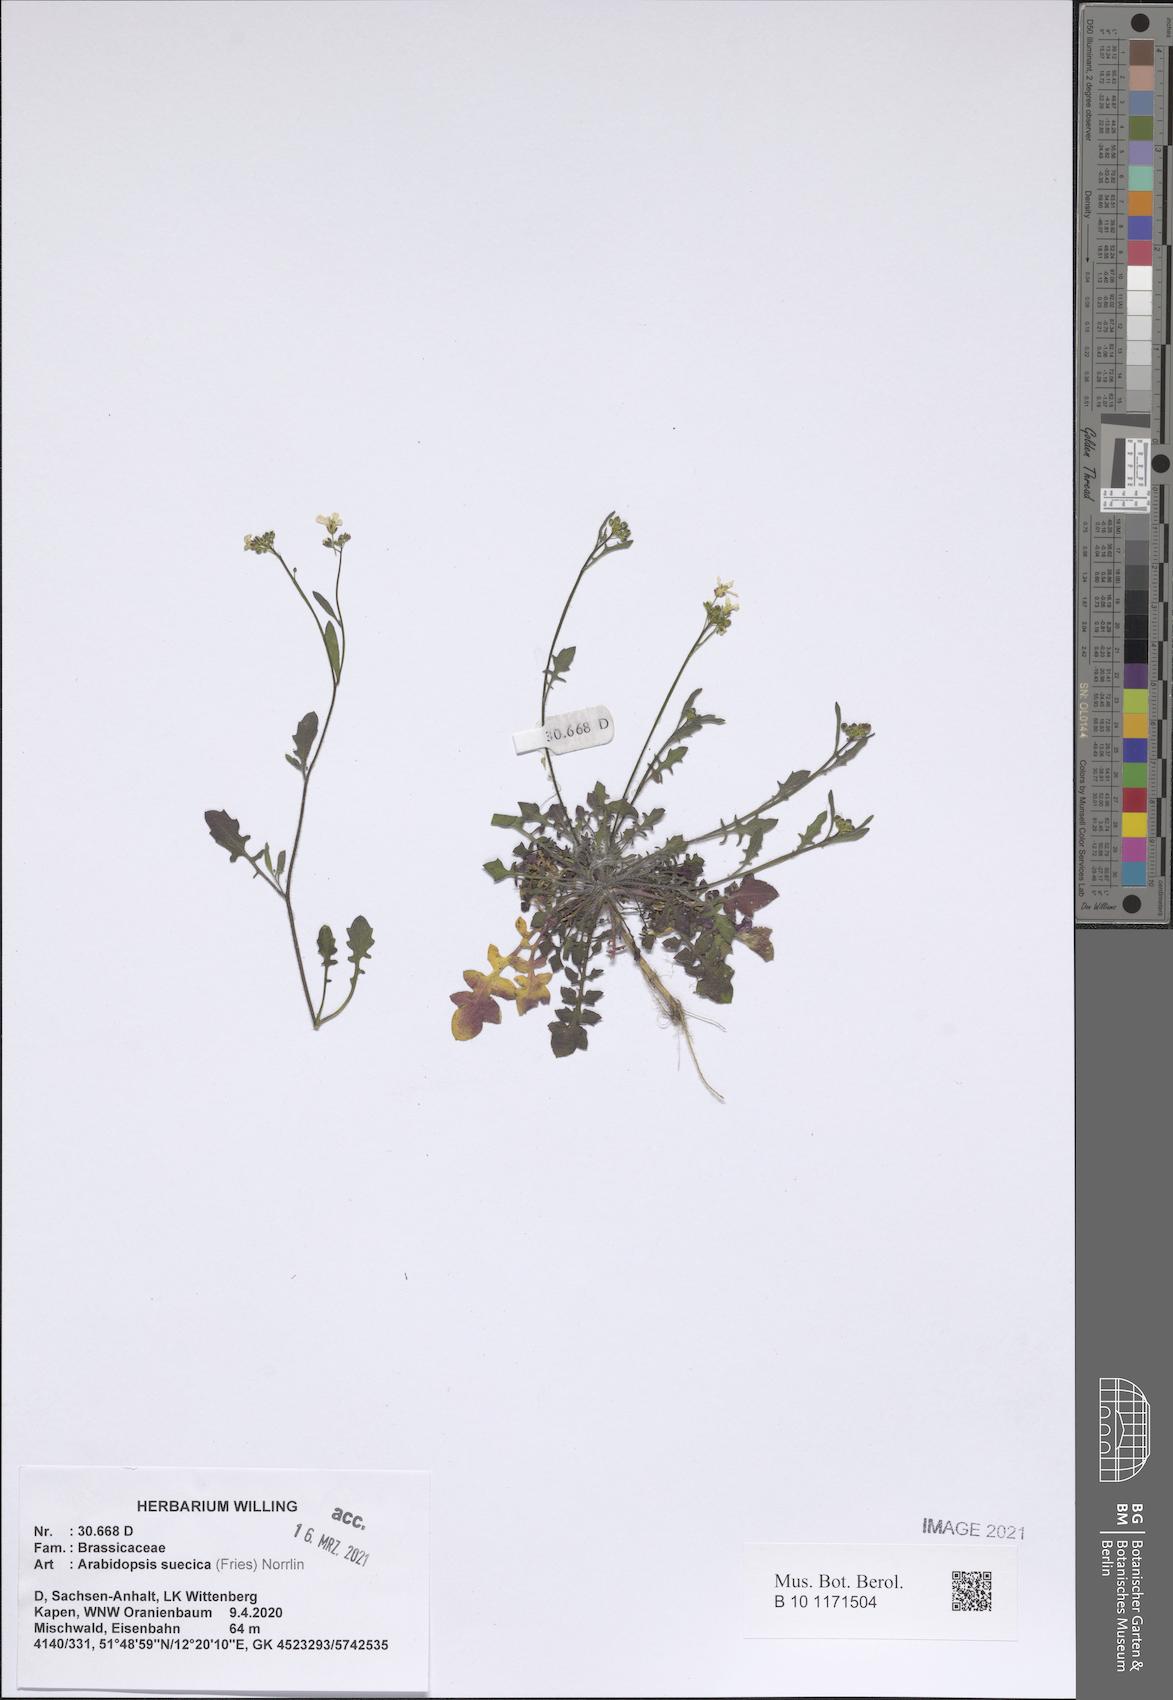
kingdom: Plantae
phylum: Tracheophyta
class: Magnoliopsida
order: Brassicales
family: Brassicaceae
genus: Arabidopsis
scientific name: Arabidopsis suecica
